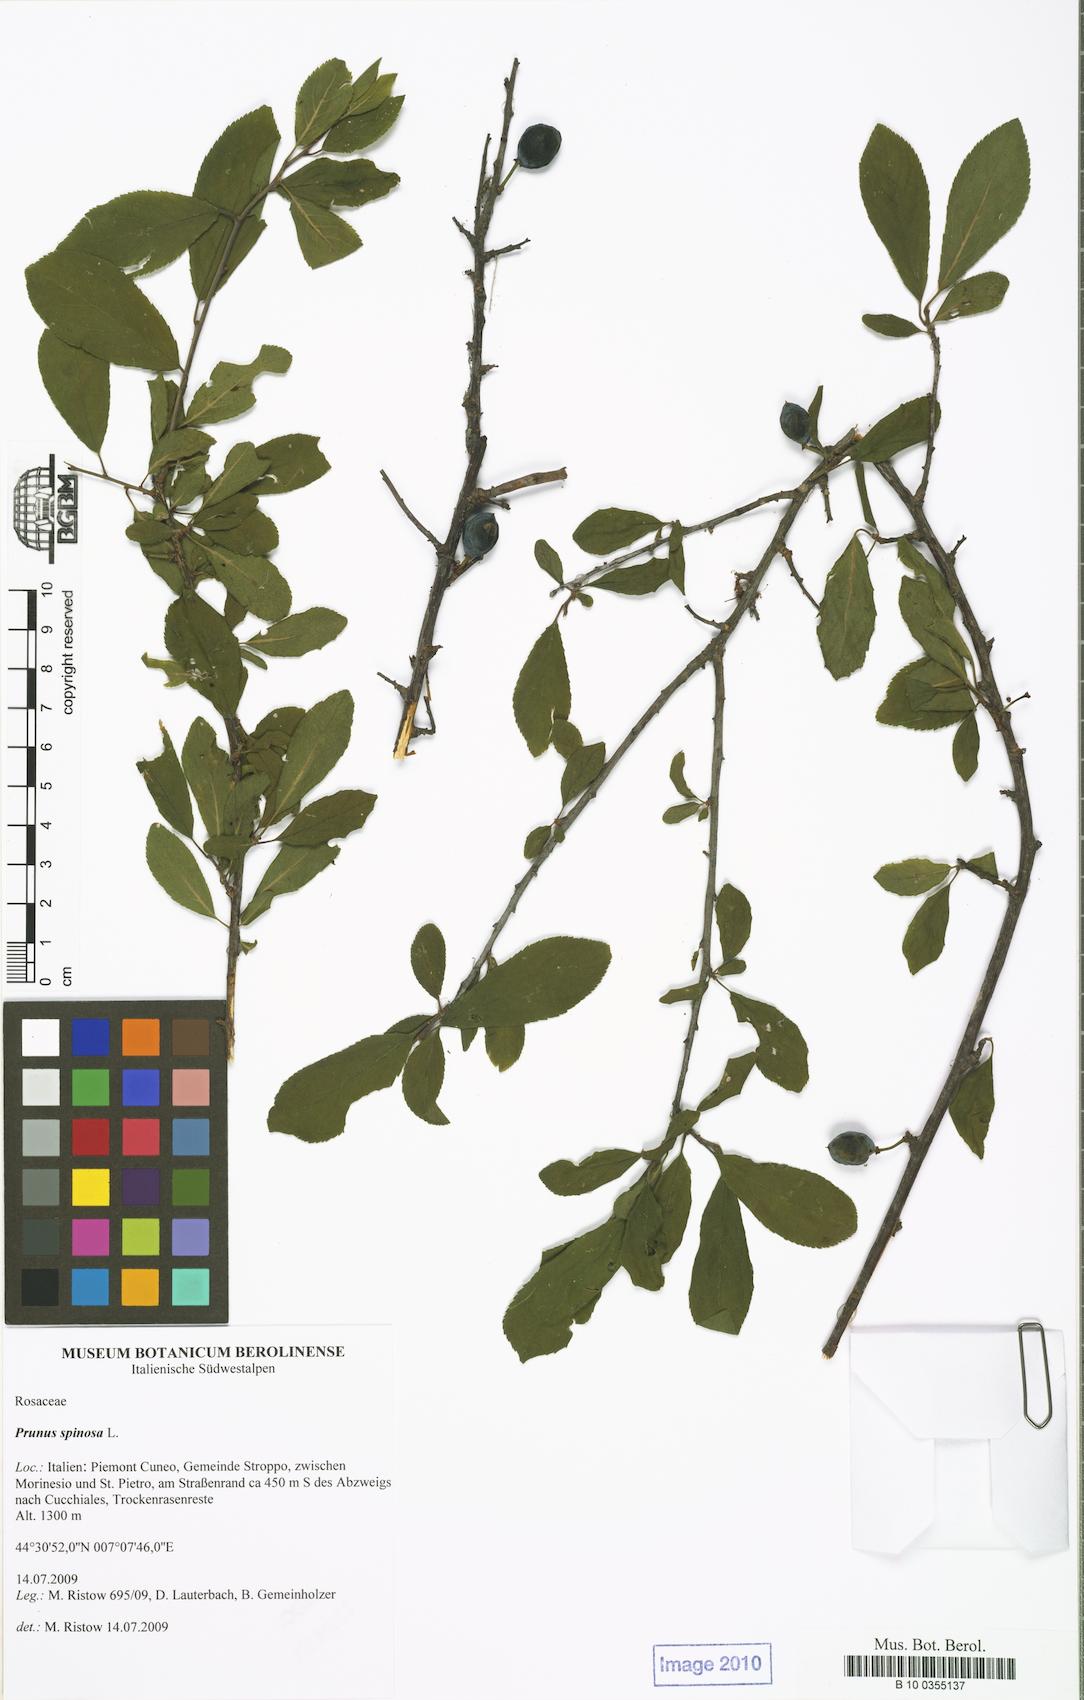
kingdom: Plantae
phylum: Tracheophyta
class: Magnoliopsida
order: Rosales
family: Rosaceae
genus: Prunus
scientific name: Prunus spinosa
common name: Blackthorn
